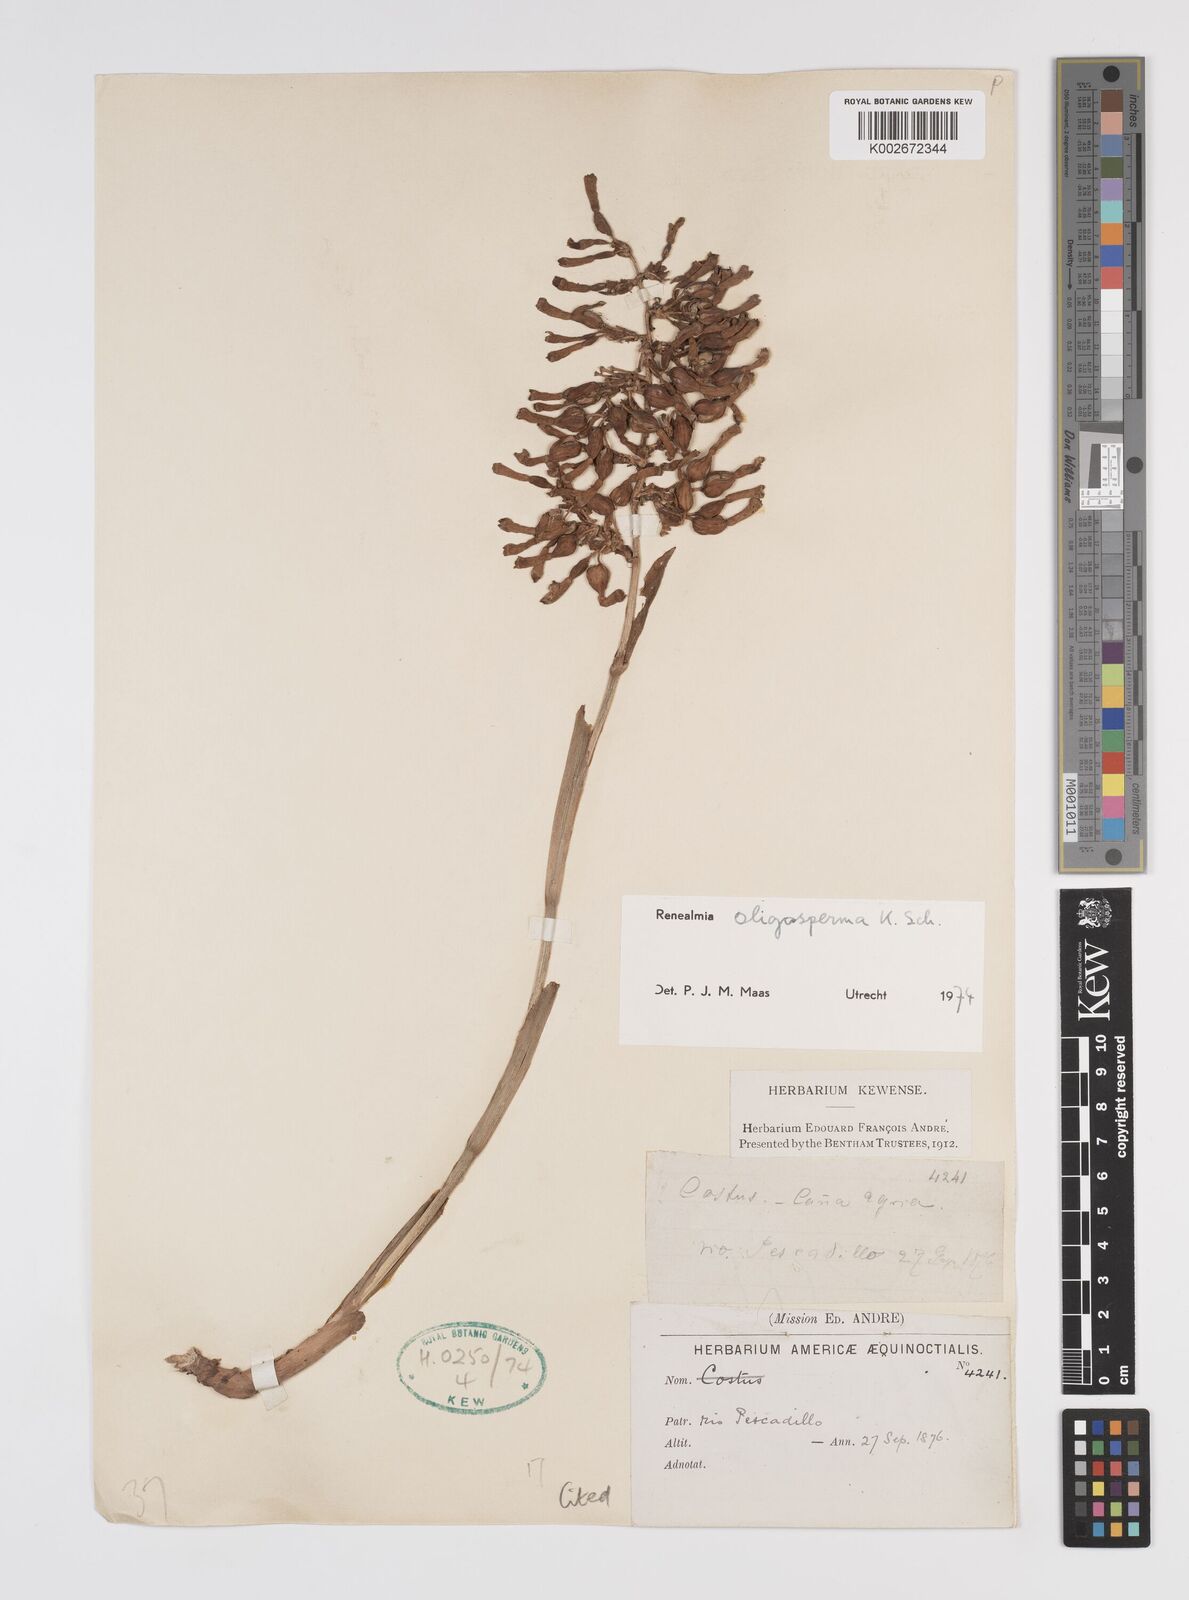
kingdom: Plantae
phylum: Tracheophyta
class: Liliopsida
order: Zingiberales
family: Zingiberaceae
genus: Renealmia
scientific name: Renealmia oligosperma
